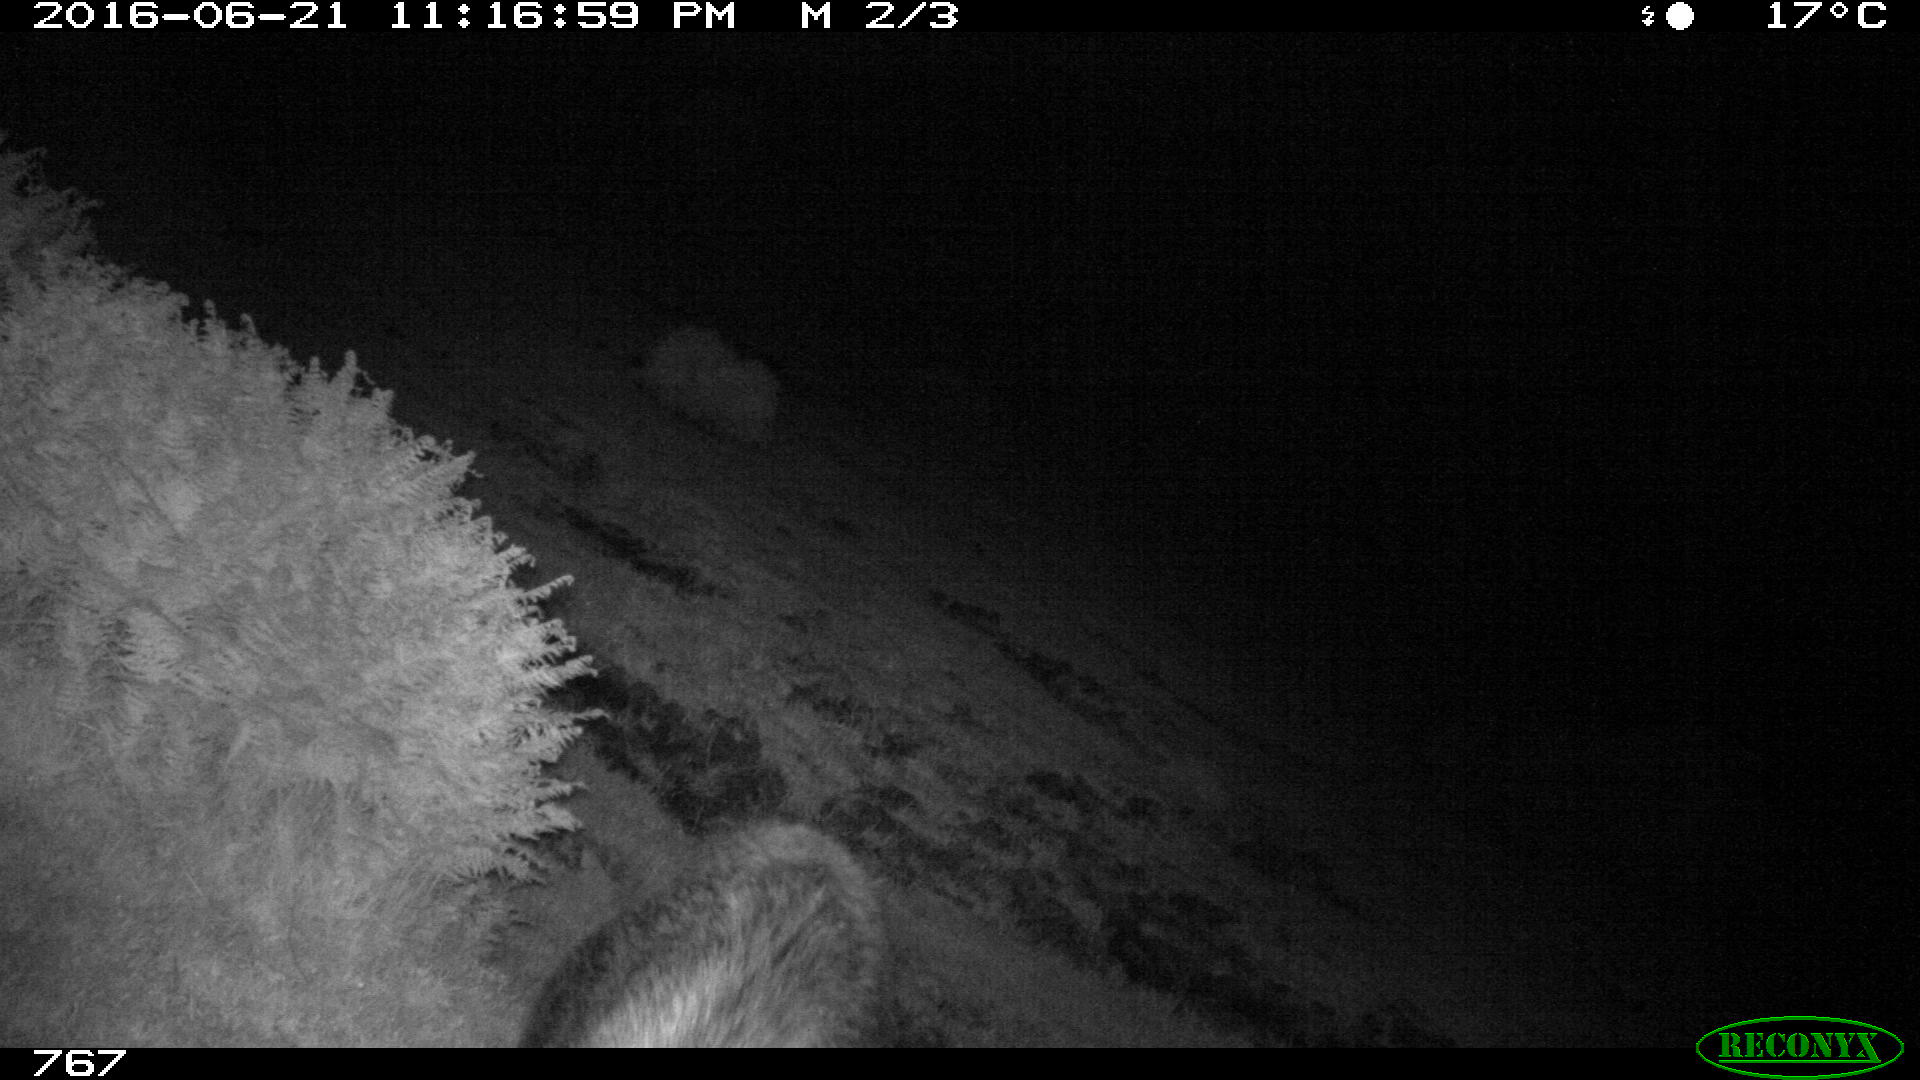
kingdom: Animalia
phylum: Chordata
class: Mammalia
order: Artiodactyla
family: Suidae
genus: Sus
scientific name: Sus scrofa
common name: Wild boar
